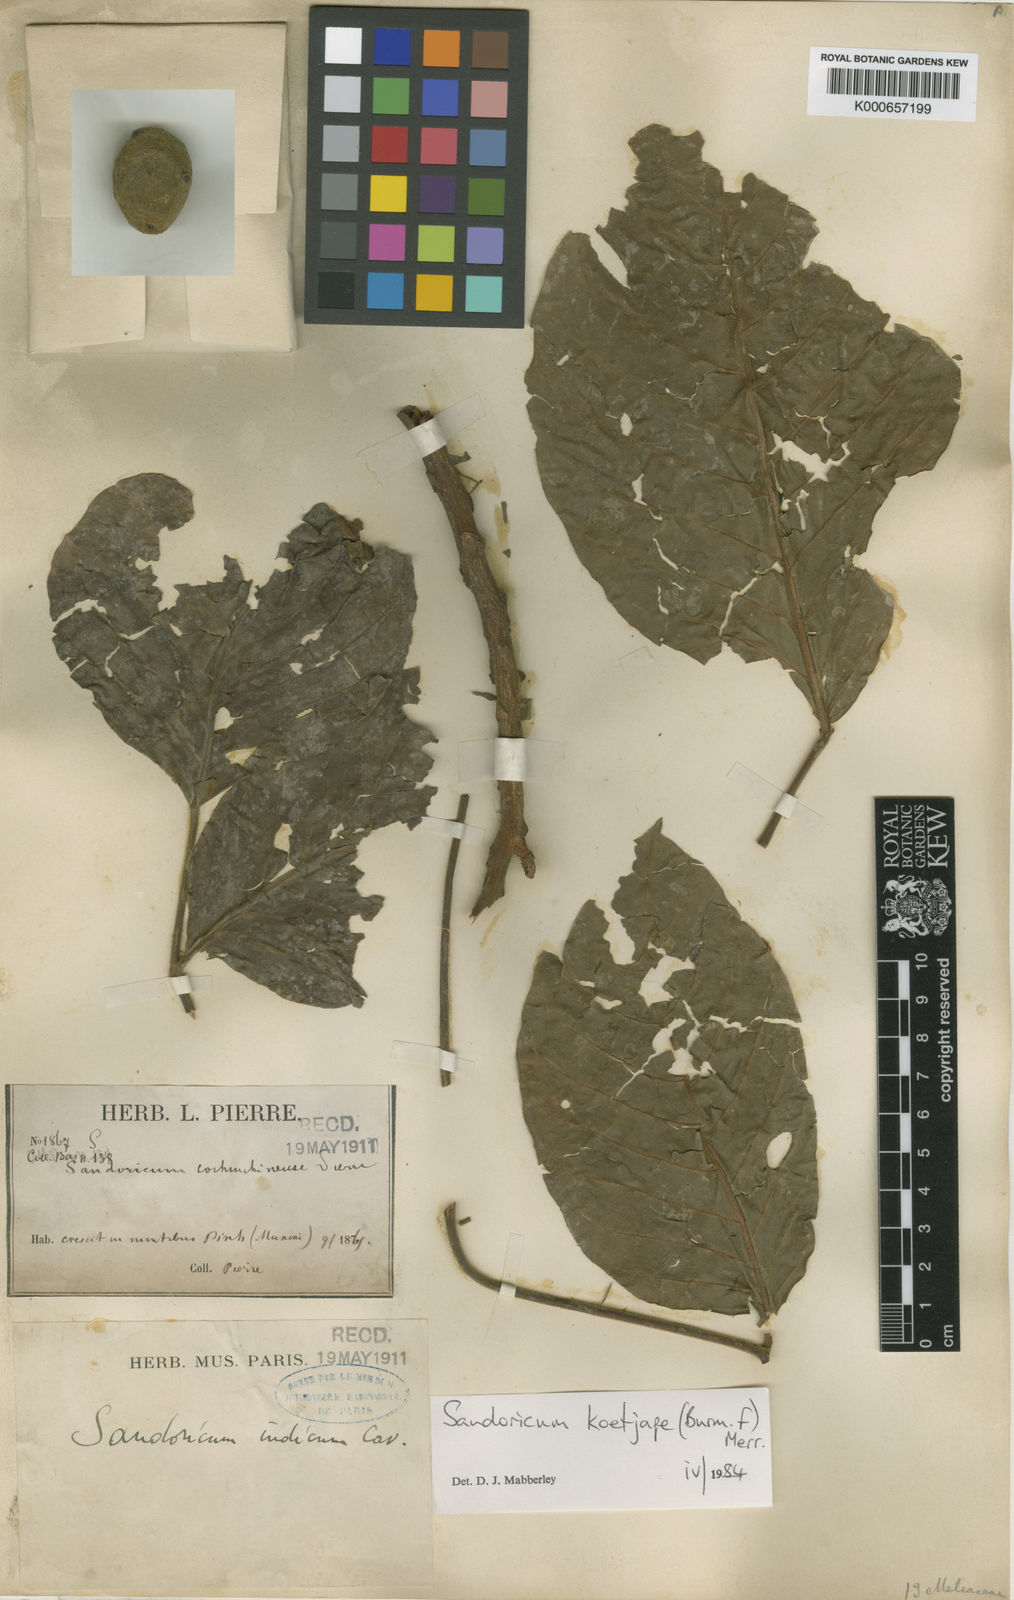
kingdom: Plantae
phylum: Tracheophyta
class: Magnoliopsida
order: Sapindales
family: Meliaceae
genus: Sandoricum
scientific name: Sandoricum koetjape
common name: Santol
